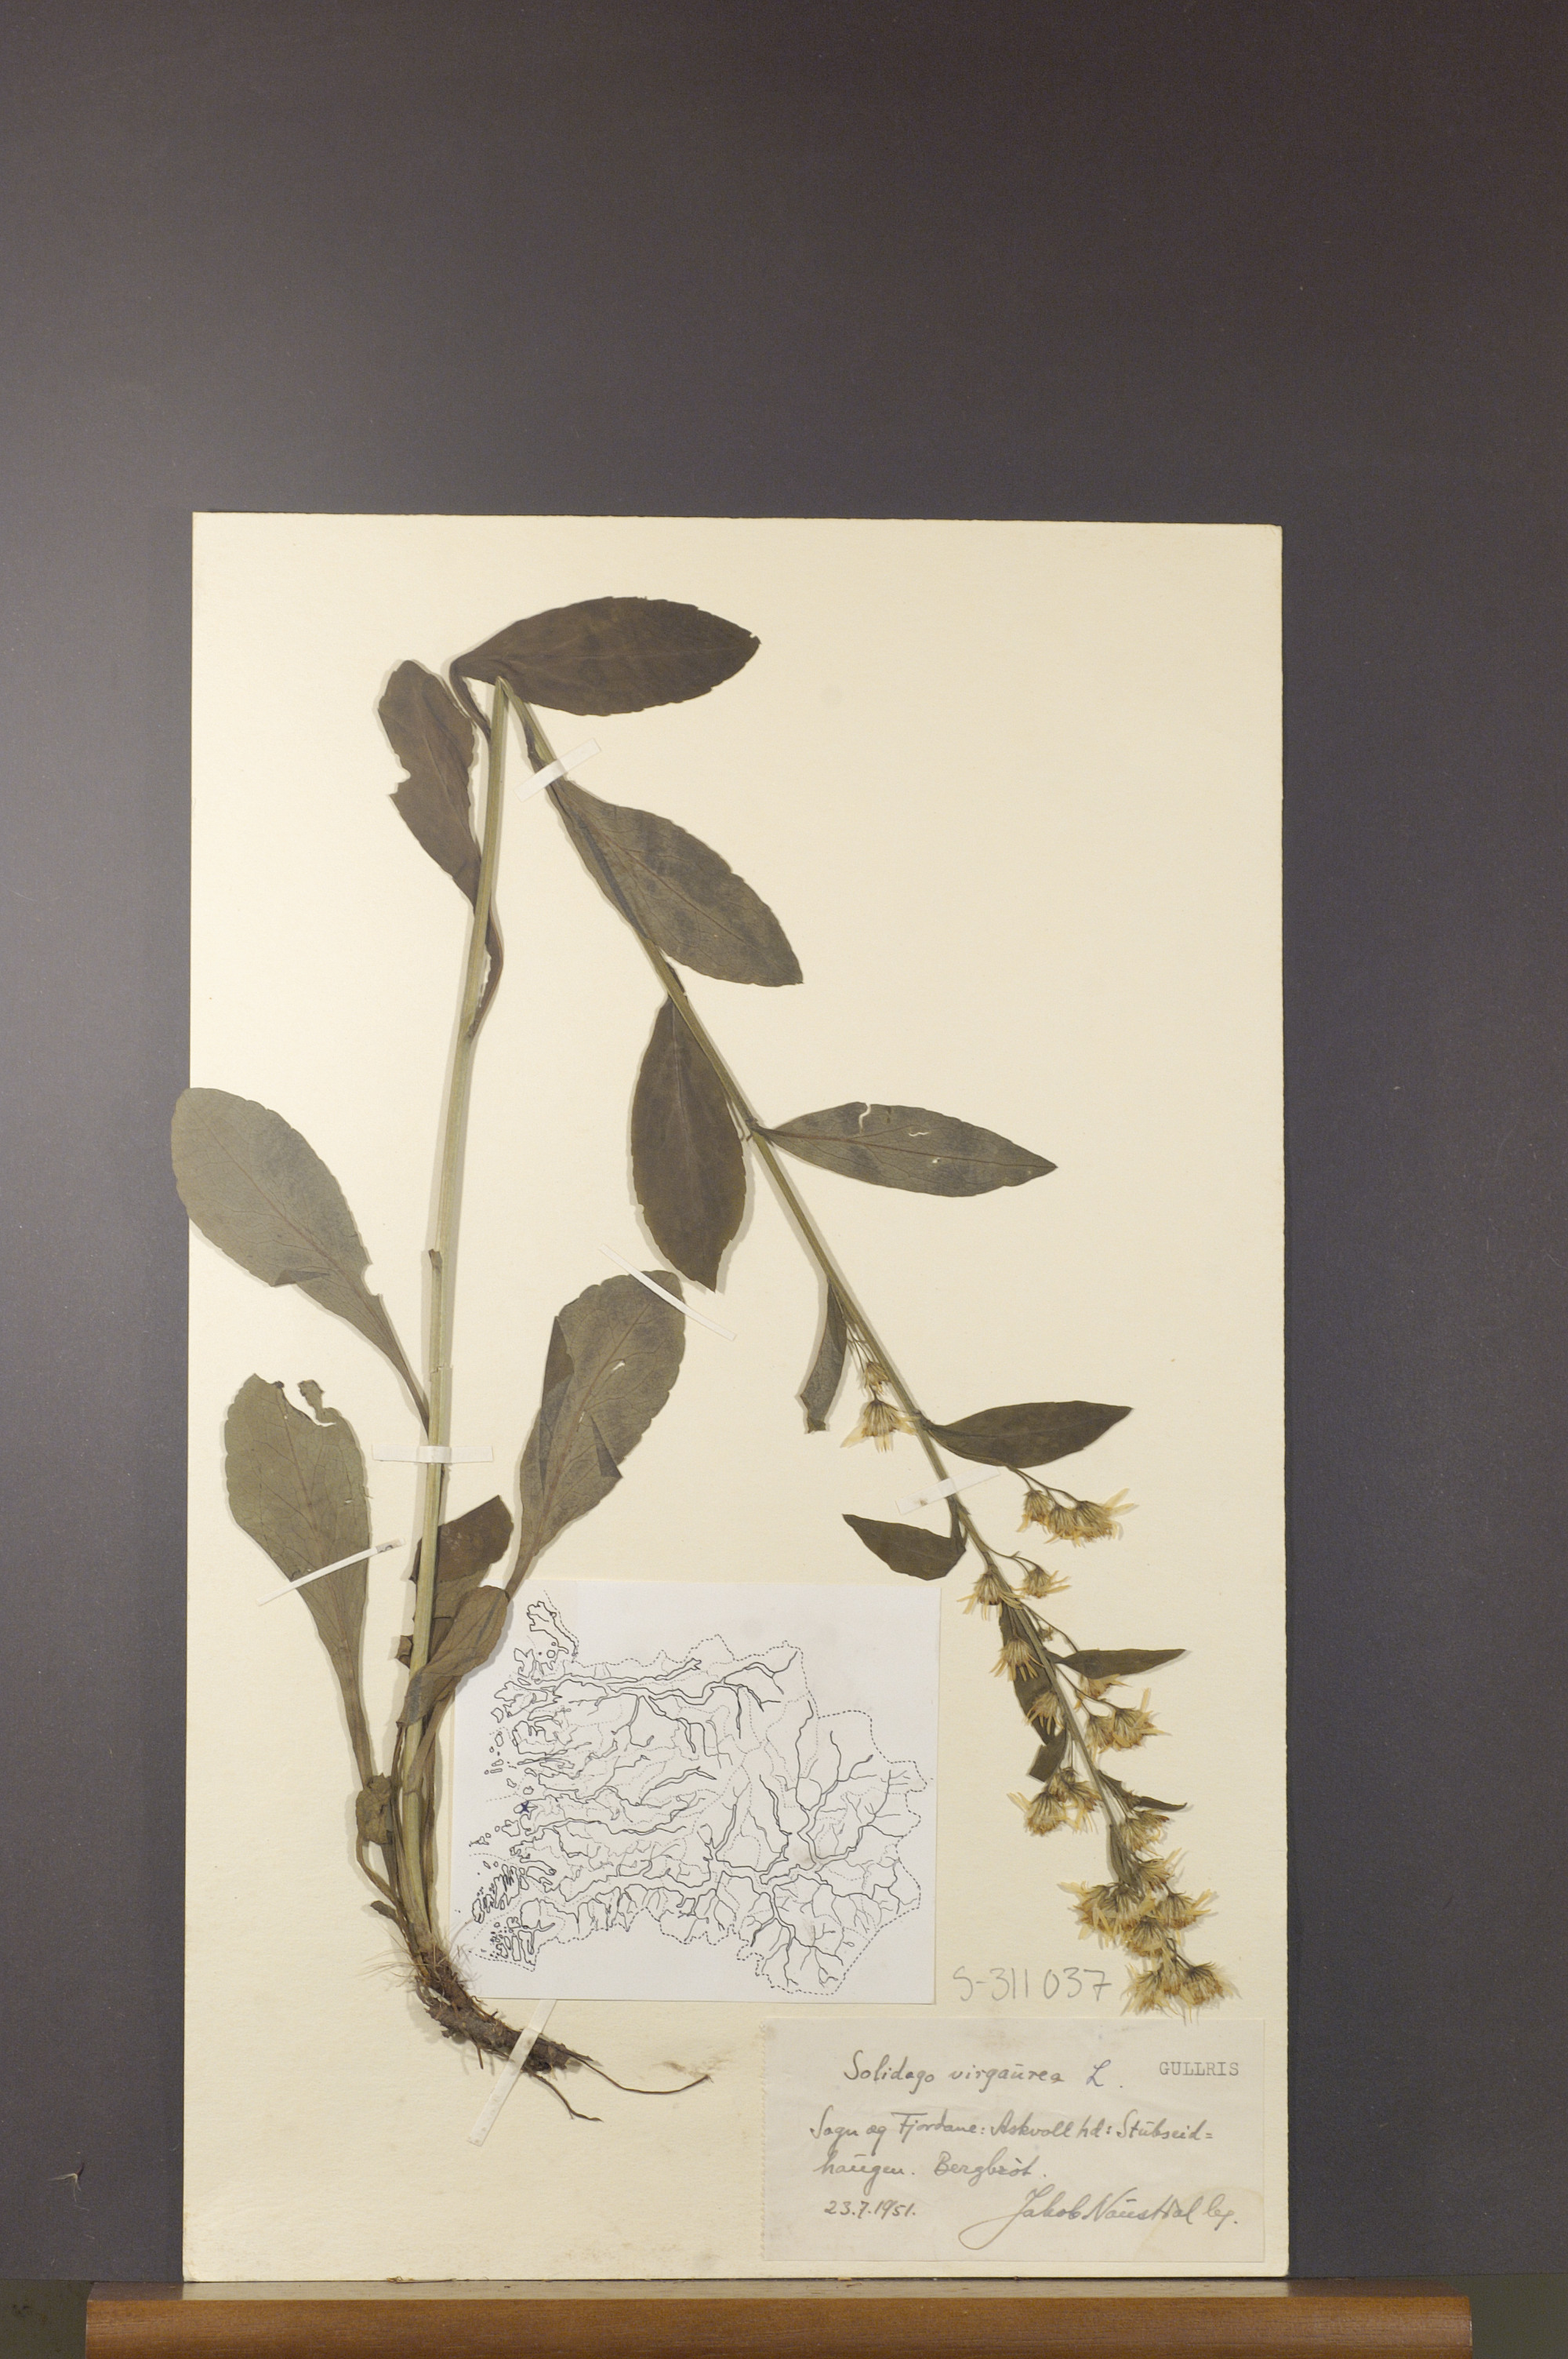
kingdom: Plantae
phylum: Tracheophyta
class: Magnoliopsida
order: Asterales
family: Asteraceae
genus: Solidago
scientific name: Solidago virgaurea
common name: Goldenrod
